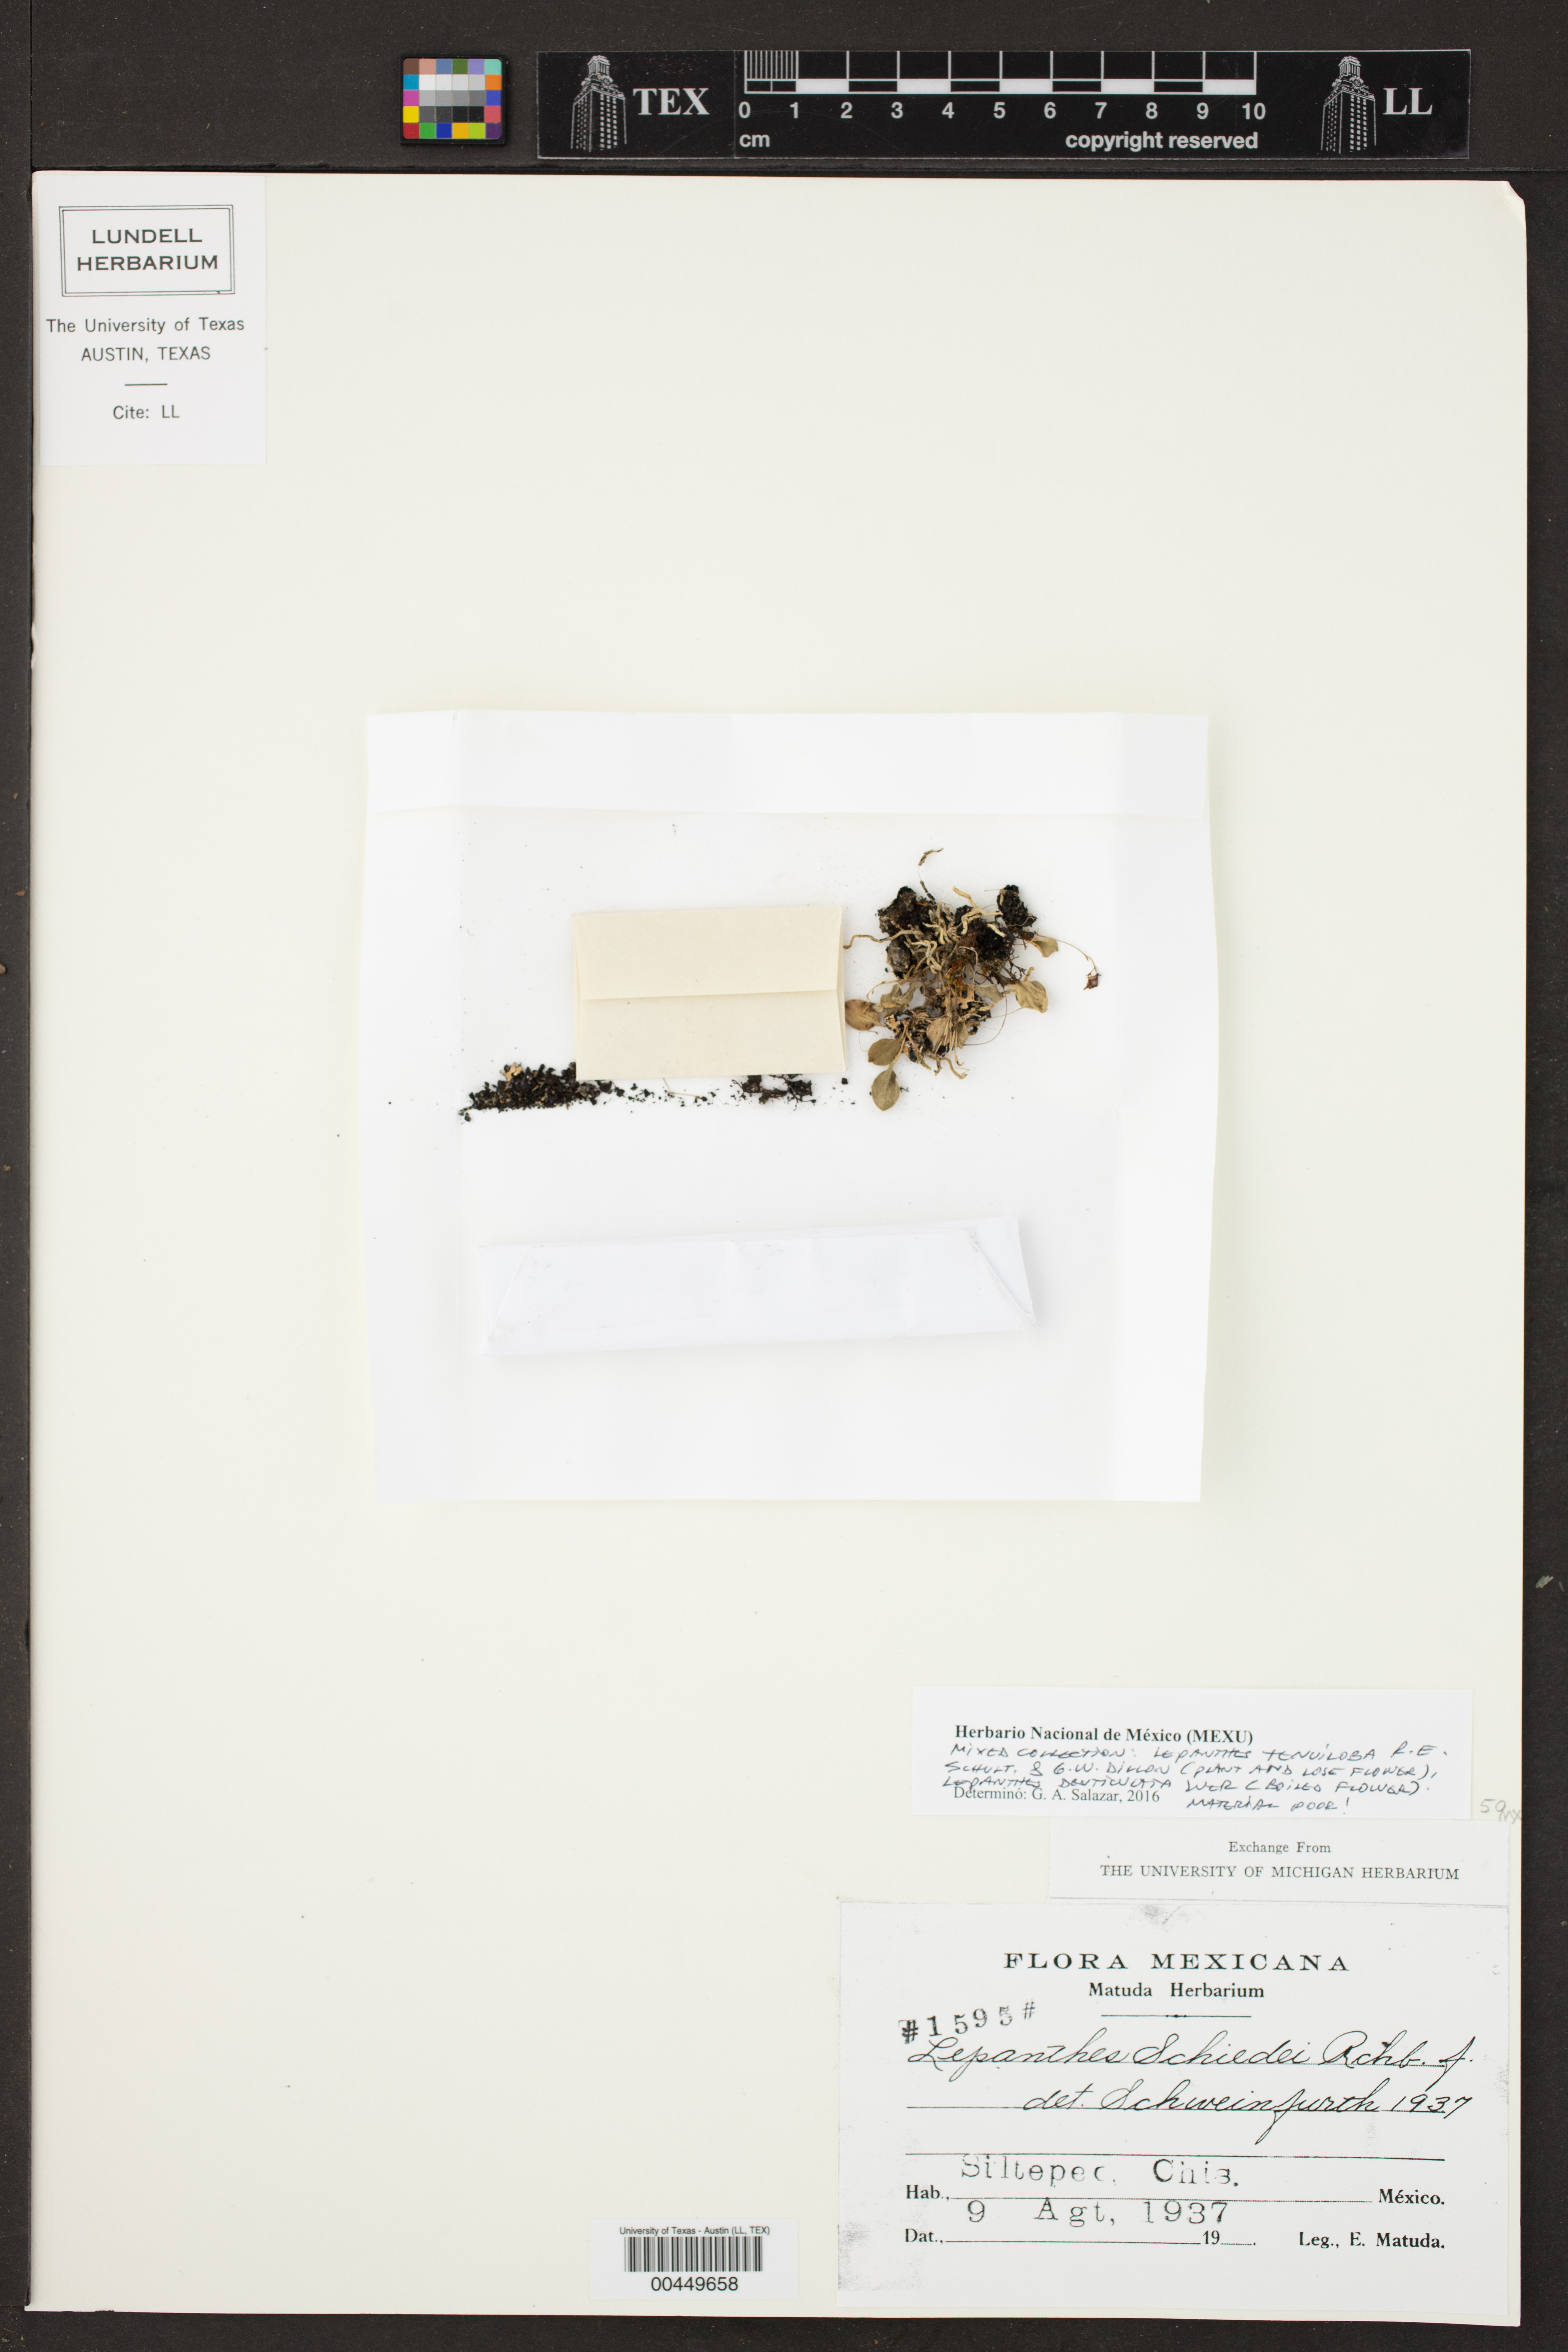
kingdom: Plantae
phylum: Tracheophyta
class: Liliopsida
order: Asparagales
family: Orchidaceae
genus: Lepanthes
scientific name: Lepanthes schiedei
